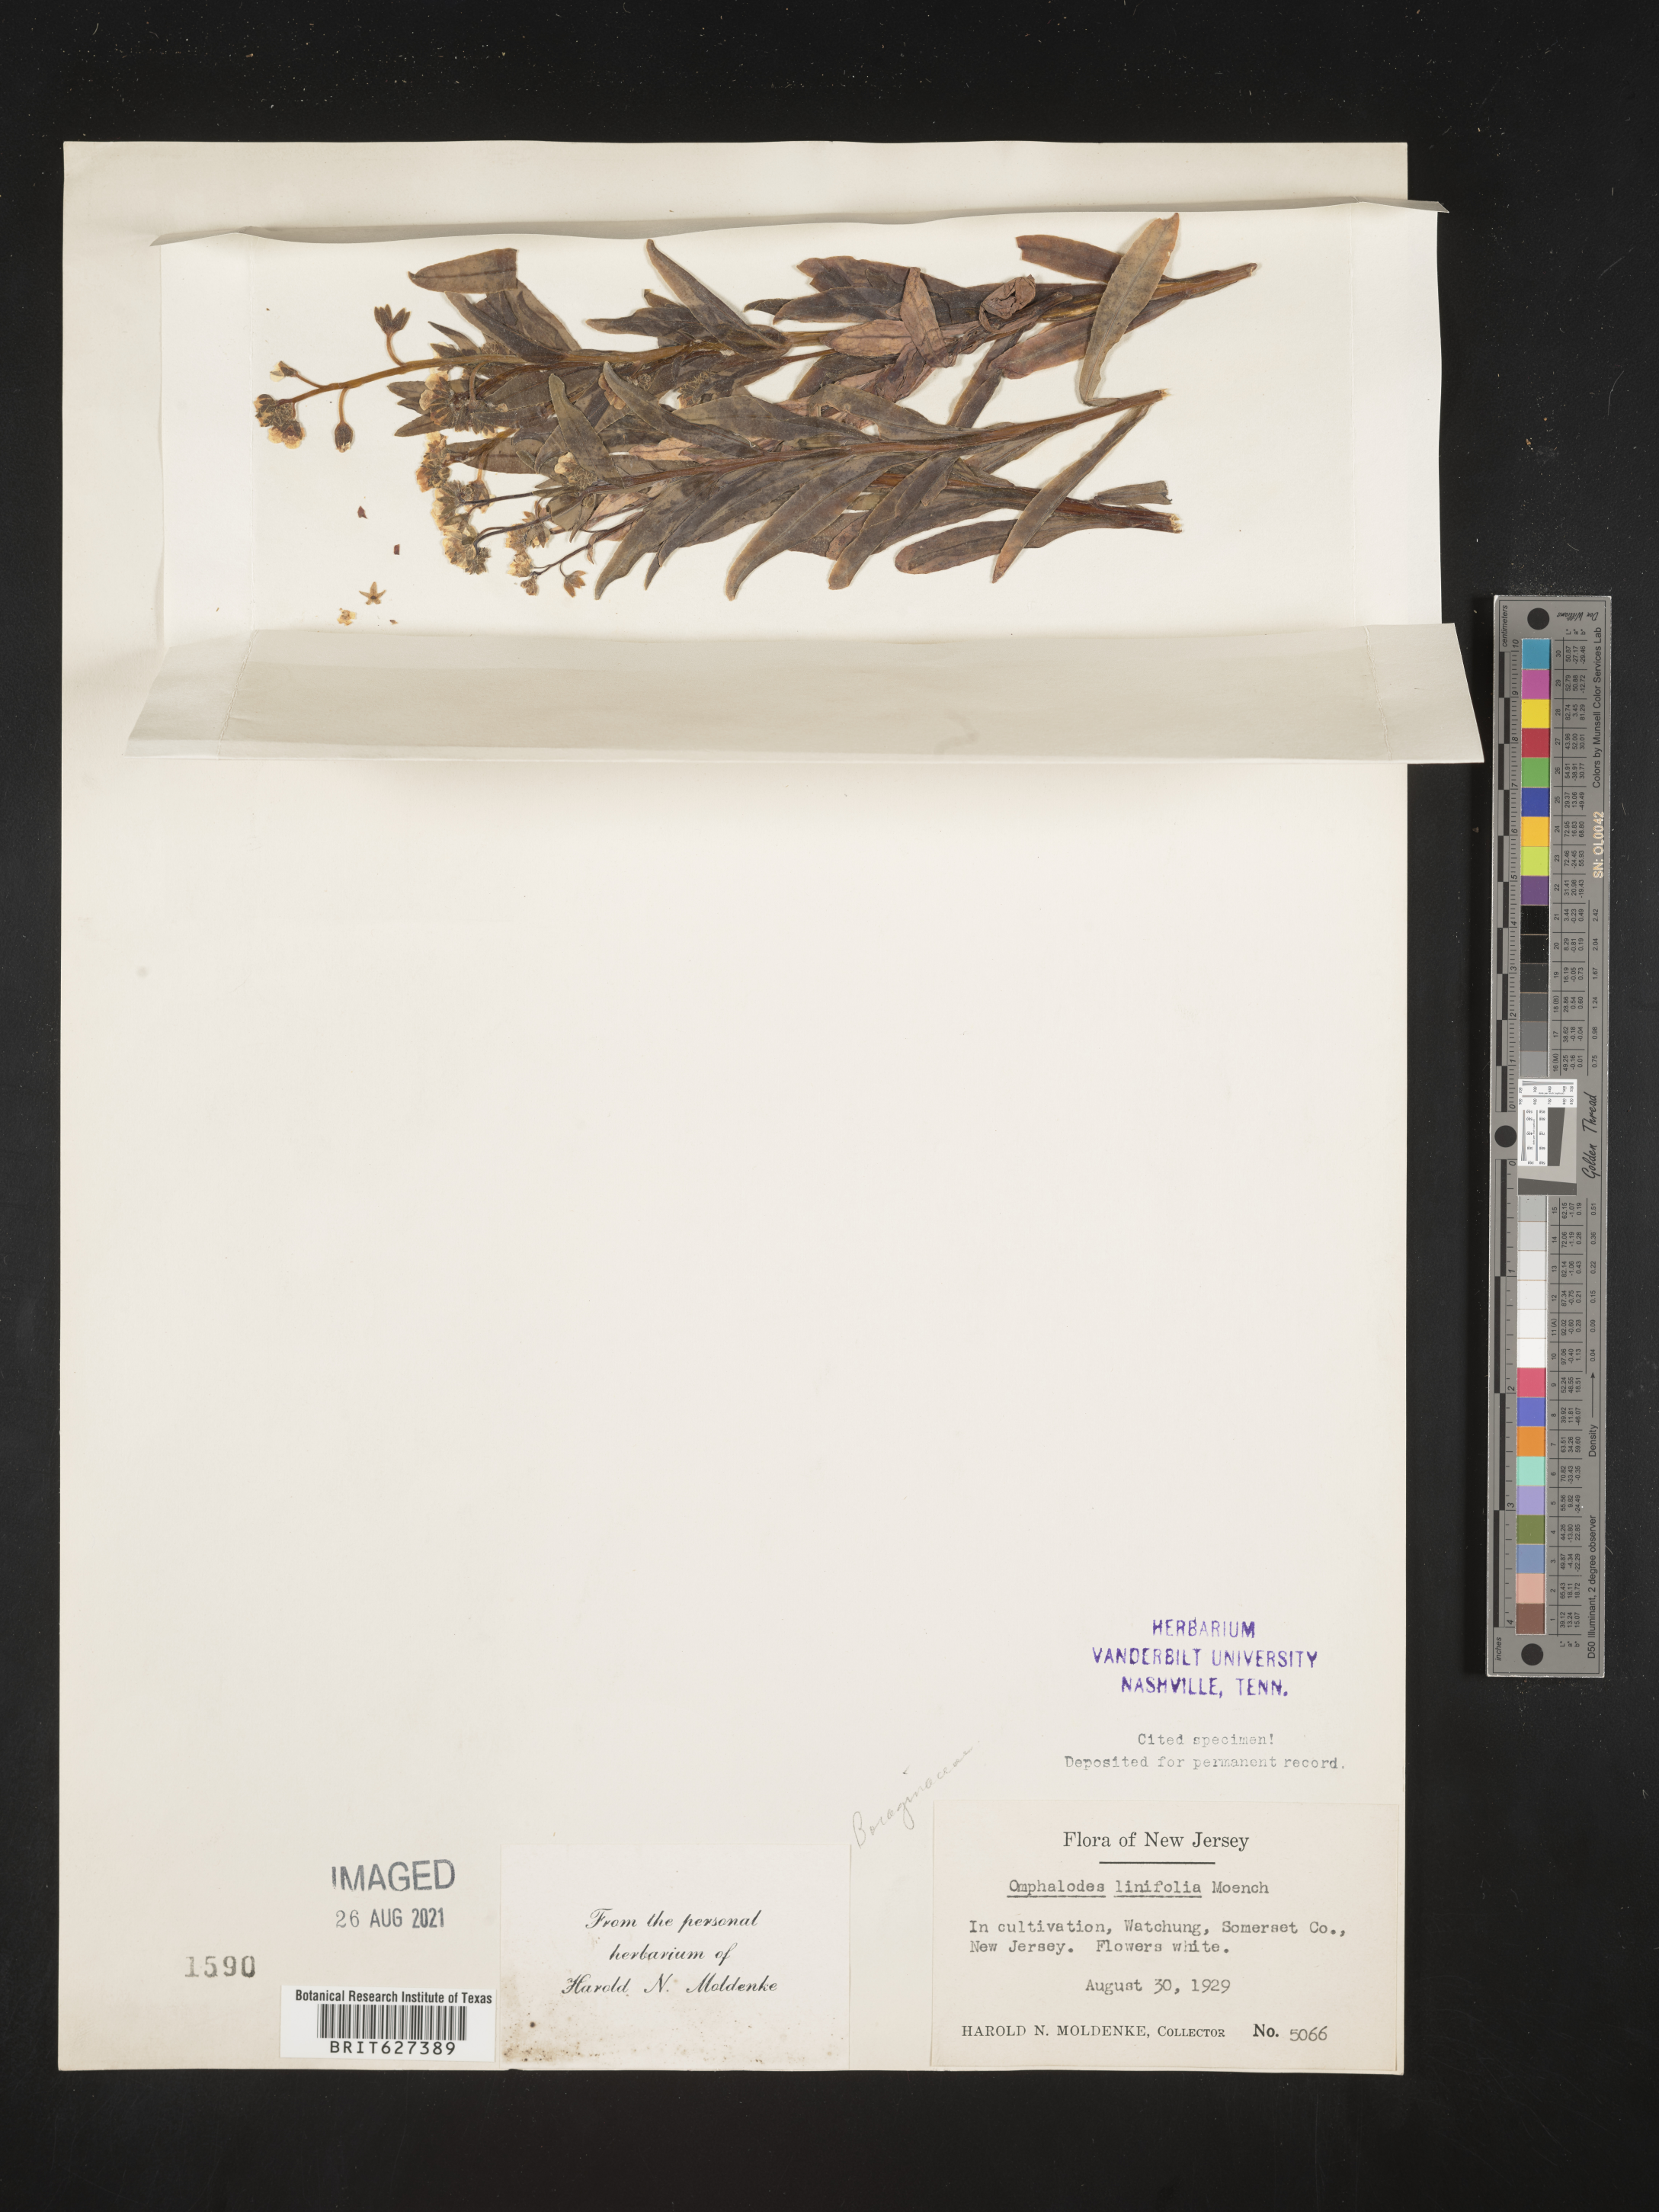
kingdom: Plantae
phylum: Tracheophyta
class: Magnoliopsida
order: Boraginales
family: Boraginaceae
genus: Iberodes
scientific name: Iberodes linifolia
